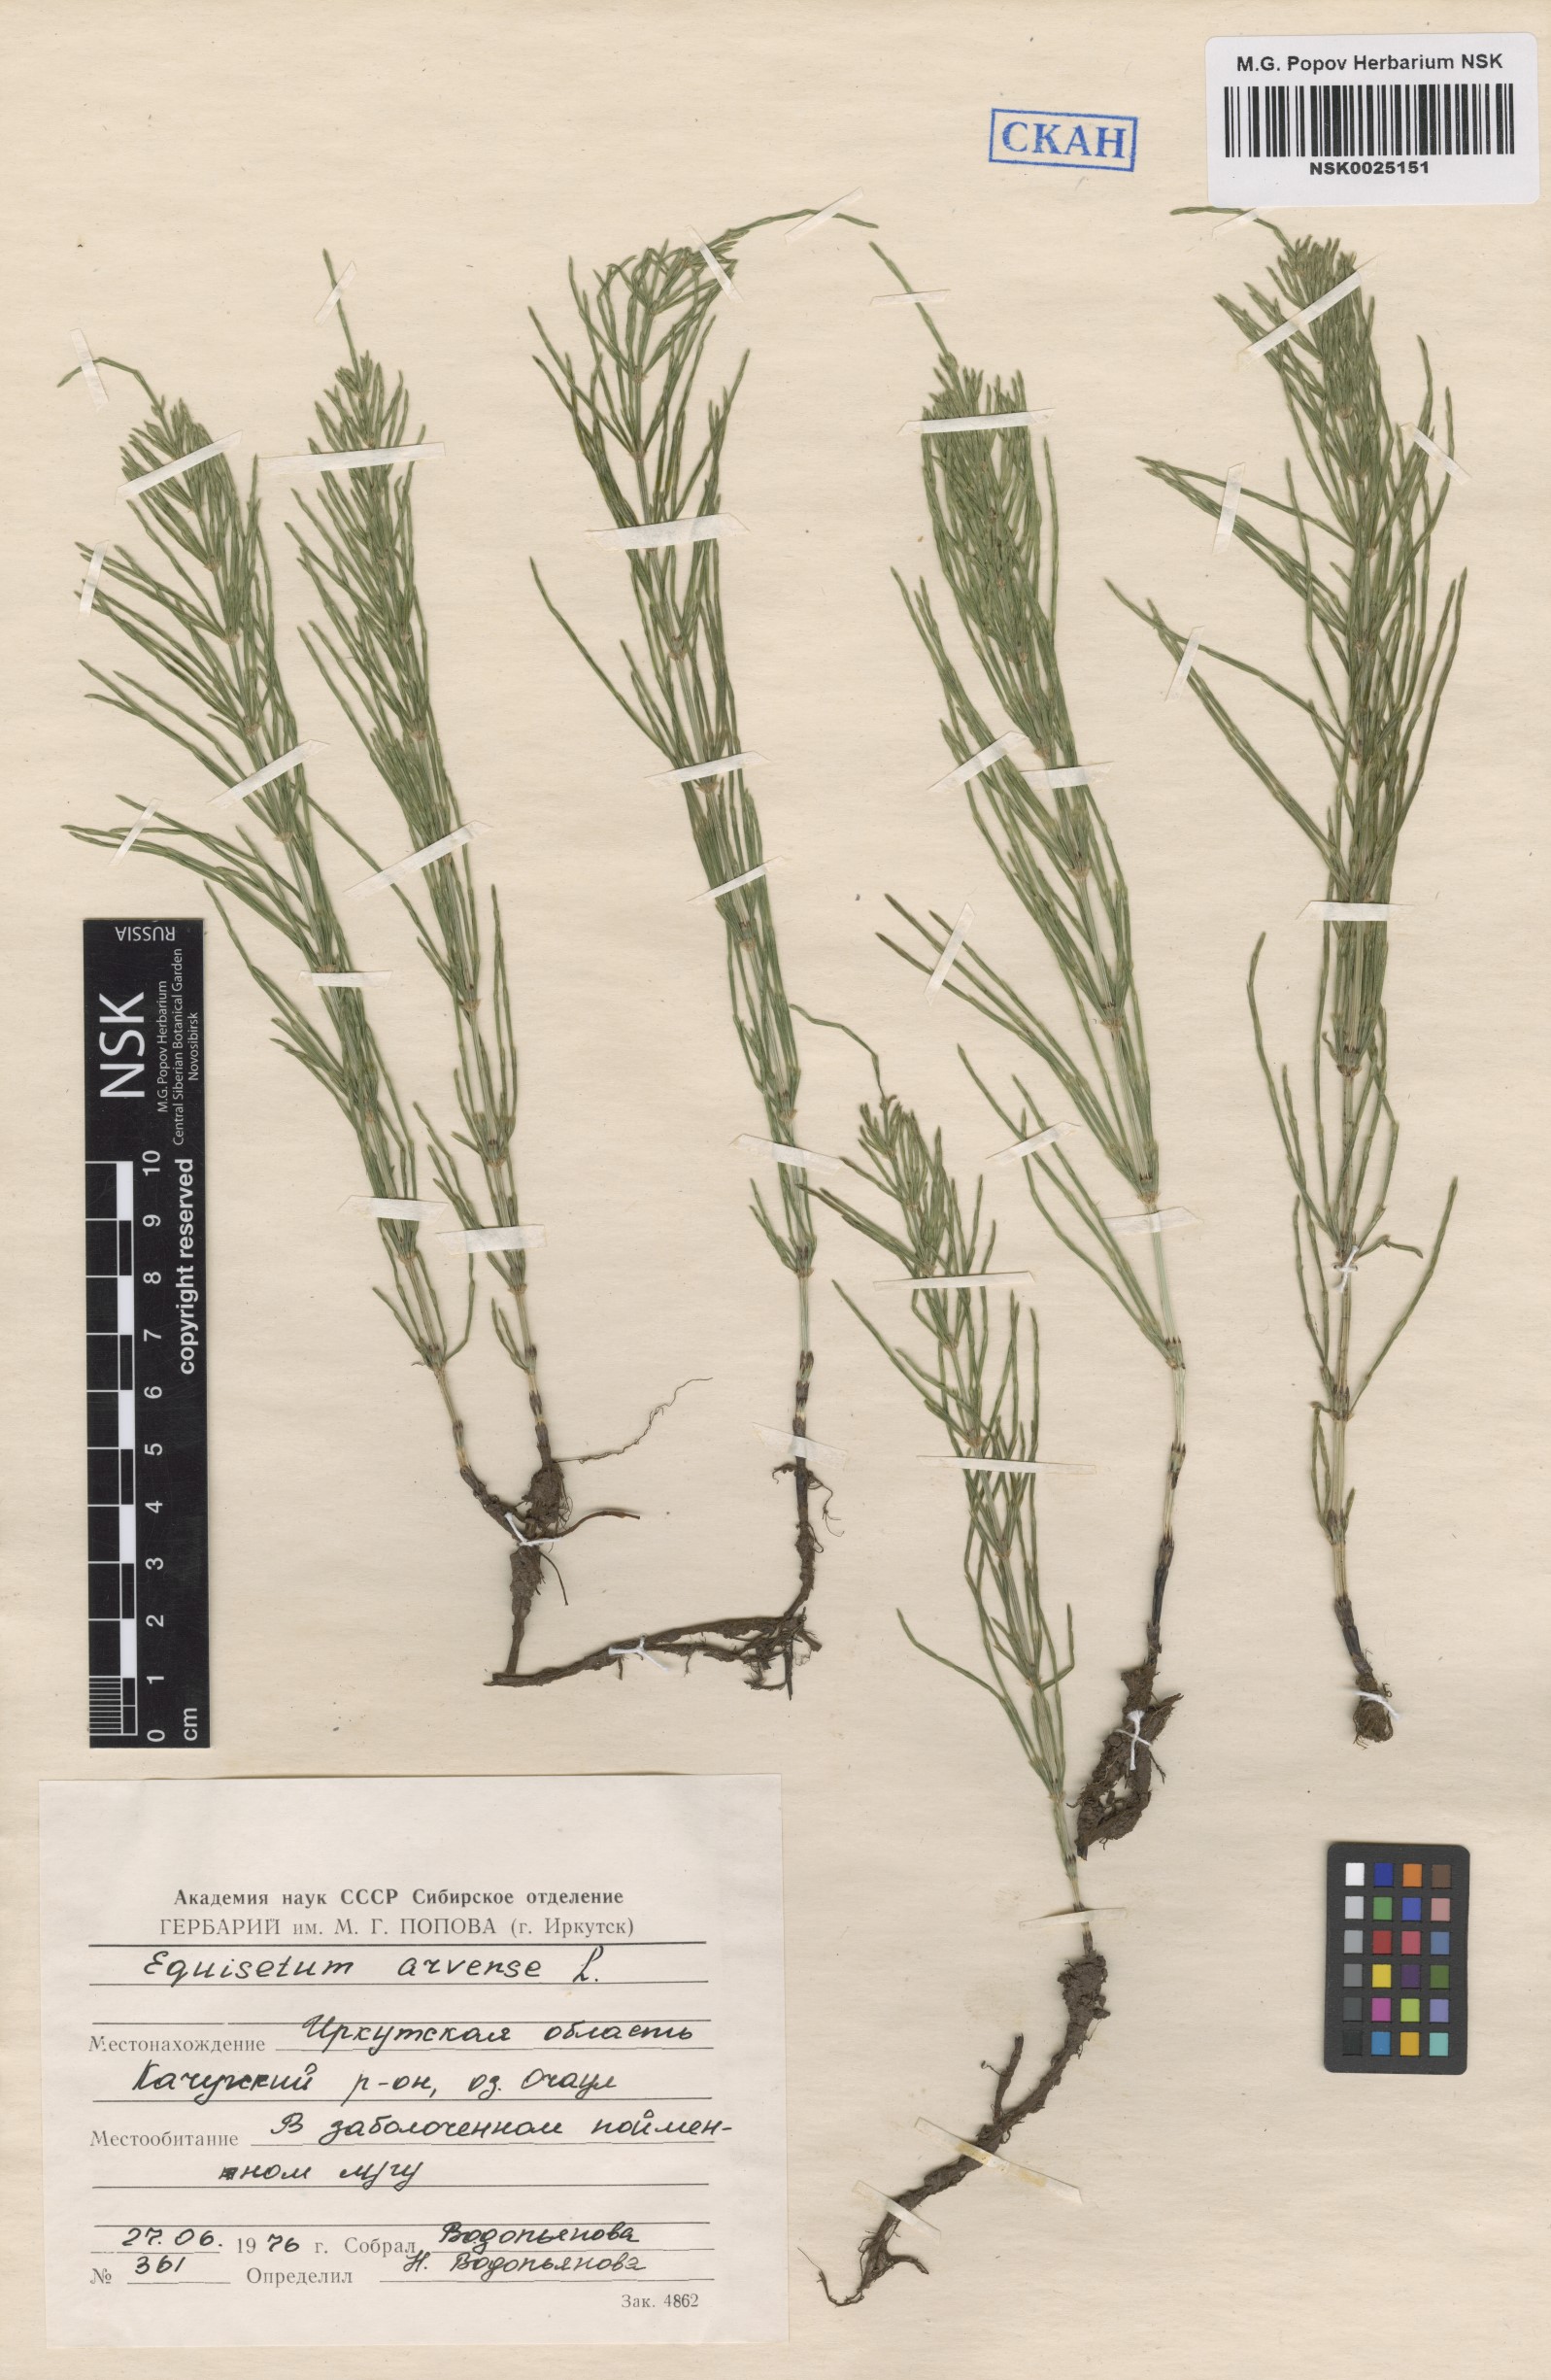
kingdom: Plantae
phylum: Tracheophyta
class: Polypodiopsida
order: Equisetales
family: Equisetaceae
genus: Equisetum
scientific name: Equisetum arvense
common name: Field horsetail
